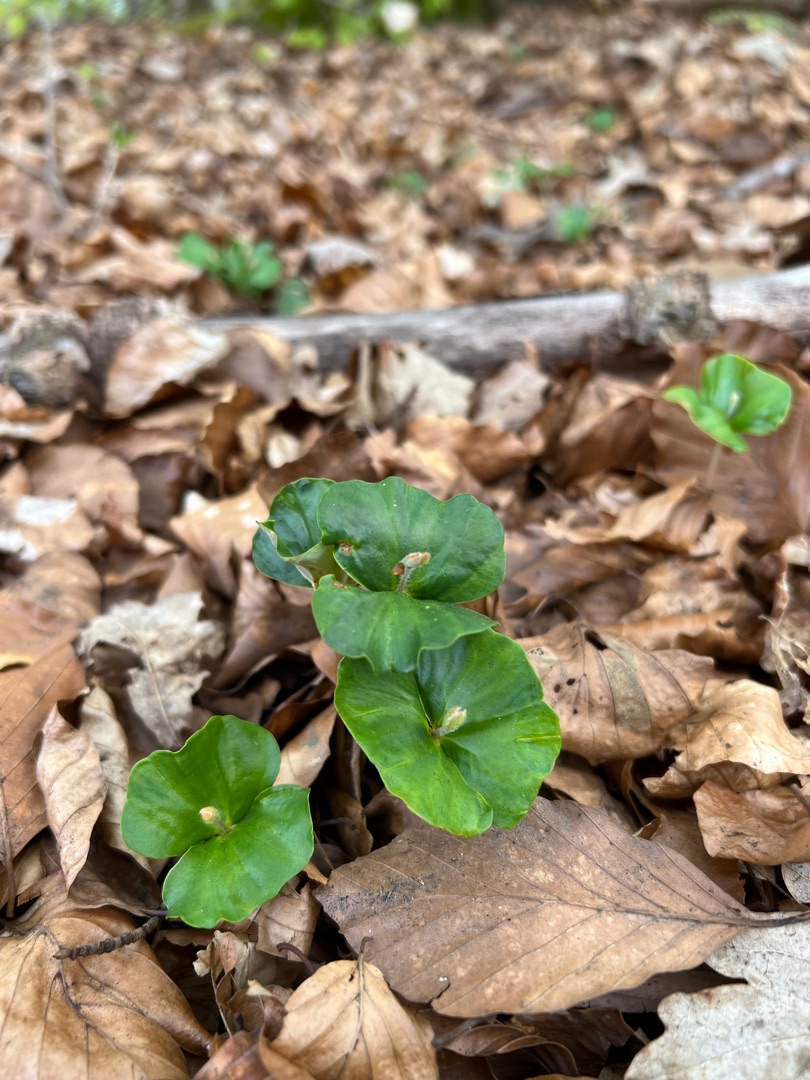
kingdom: Plantae
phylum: Tracheophyta
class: Magnoliopsida
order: Fagales
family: Fagaceae
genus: Fagus
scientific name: Fagus sylvatica
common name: Bøg
